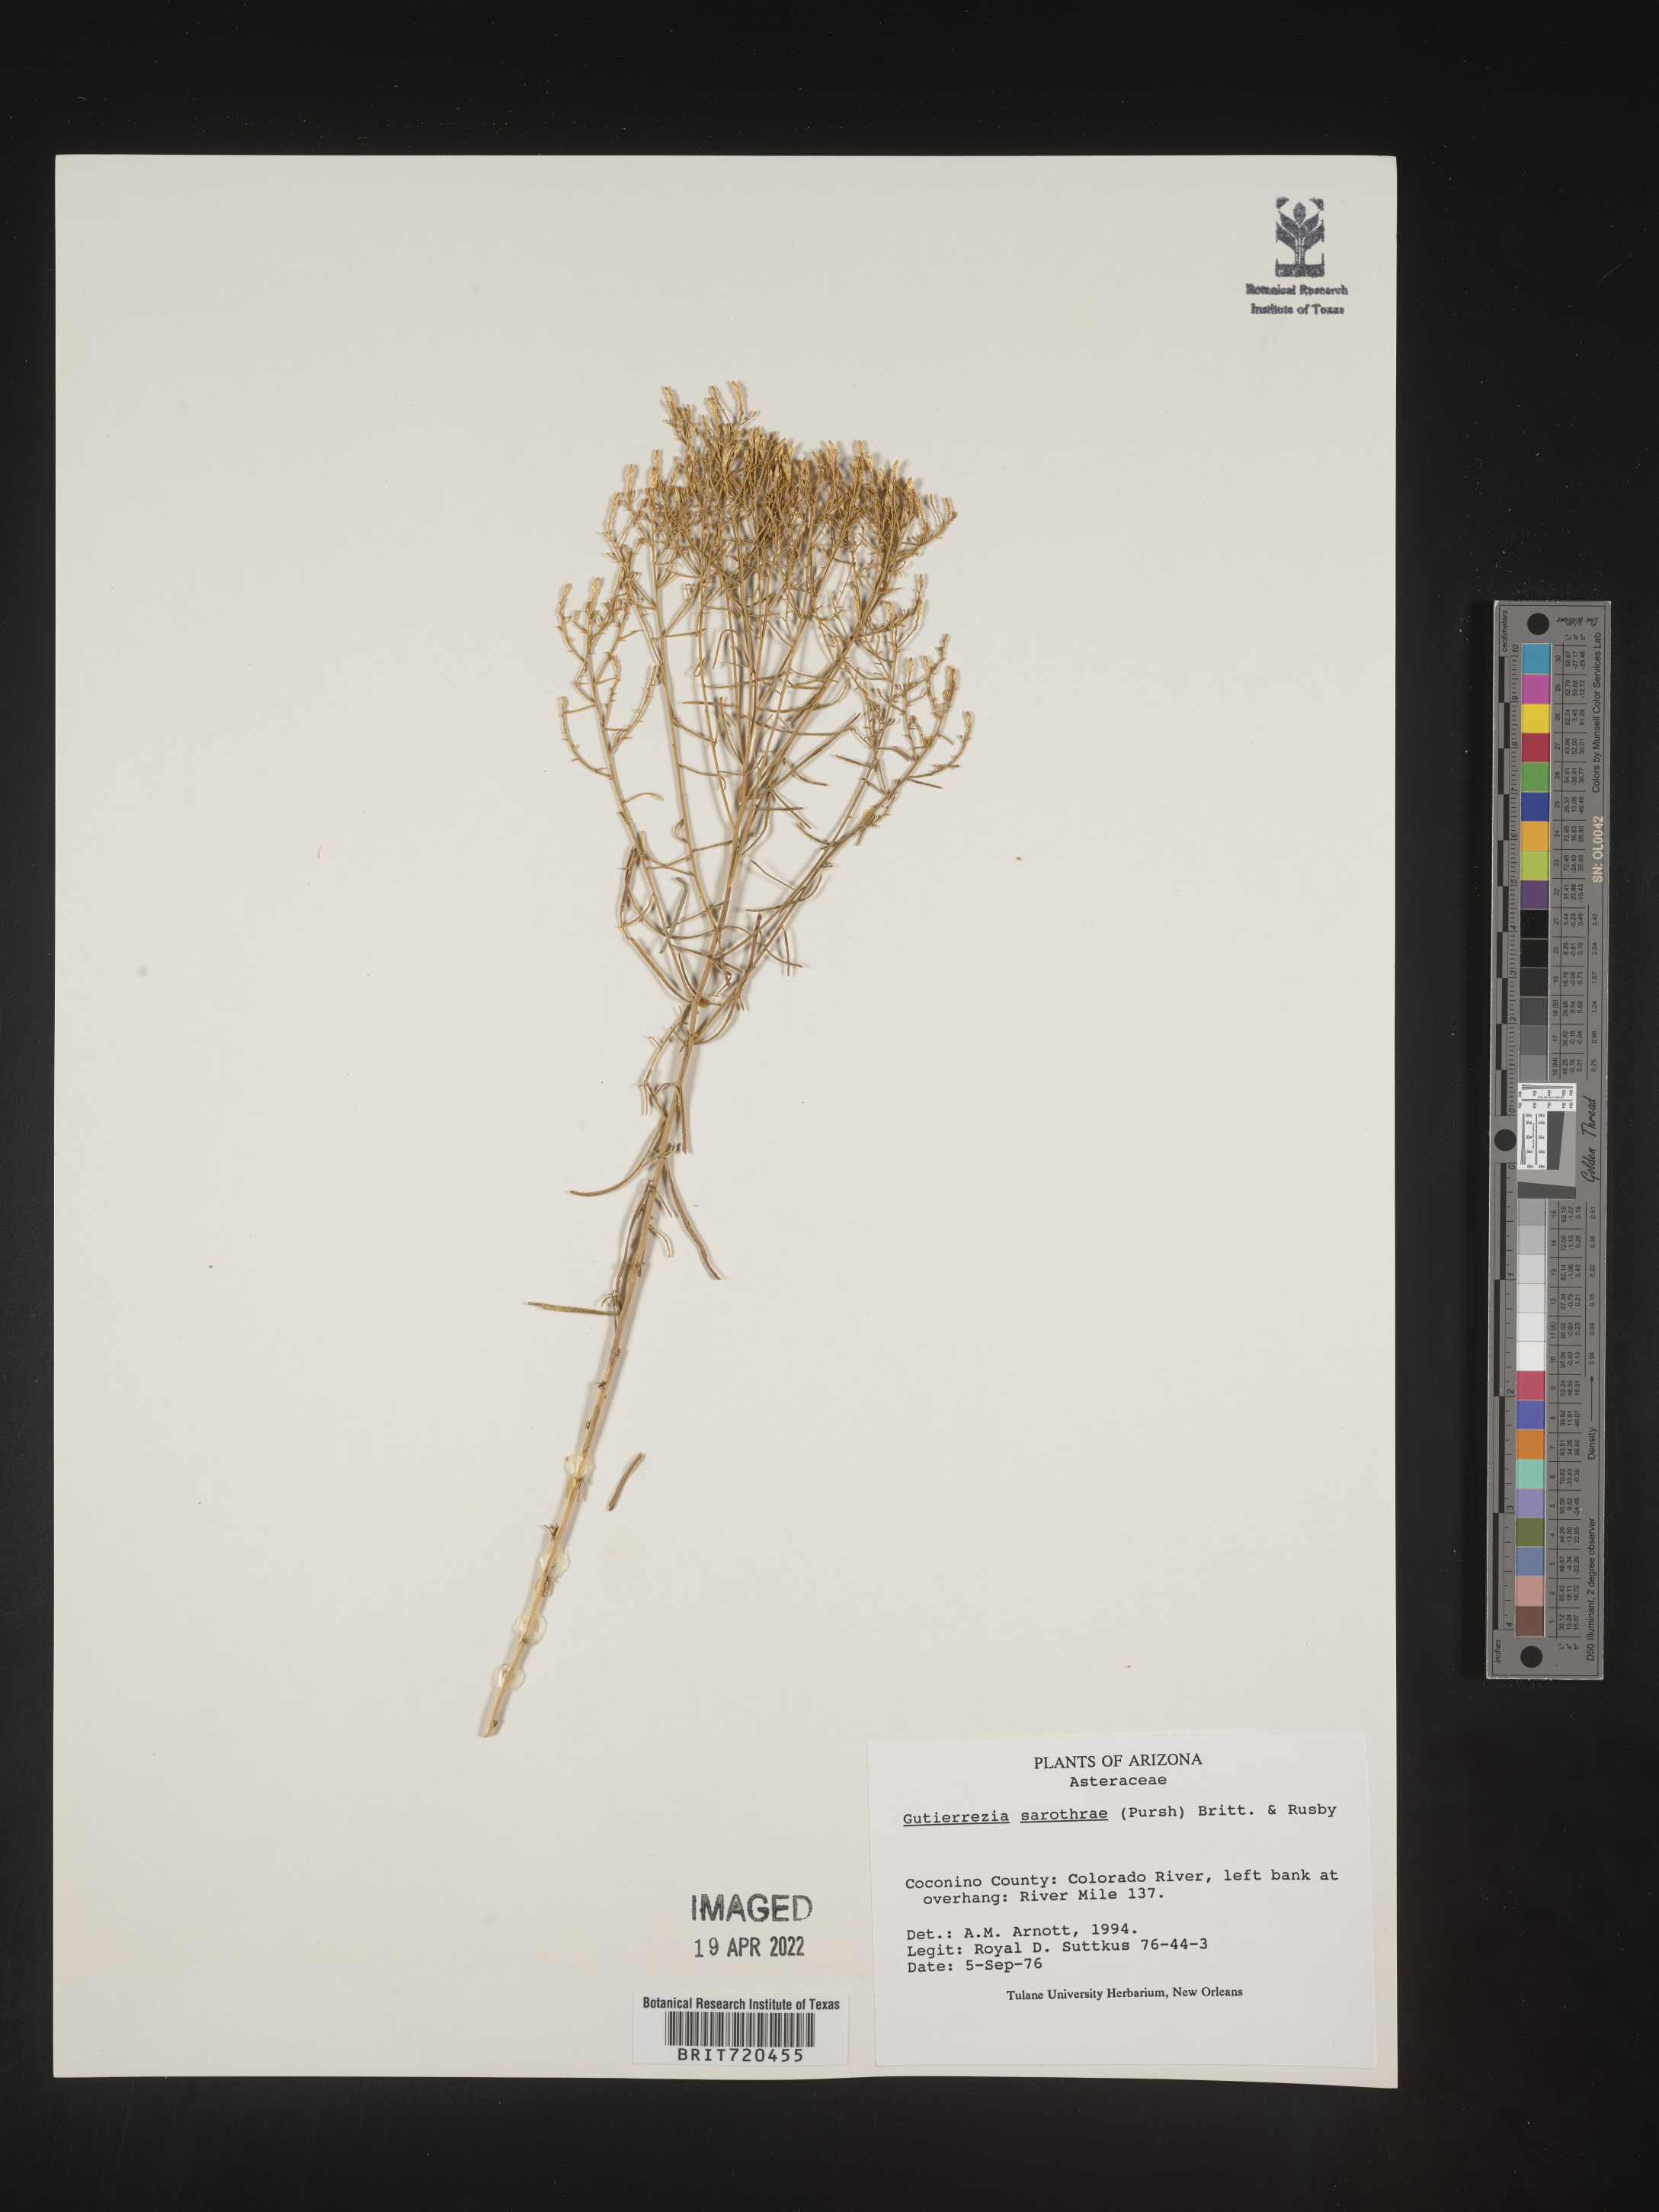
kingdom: Plantae
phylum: Tracheophyta
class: Magnoliopsida
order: Asterales
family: Asteraceae
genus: Gutierrezia
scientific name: Gutierrezia sarothrae
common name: Broom snakeweed
